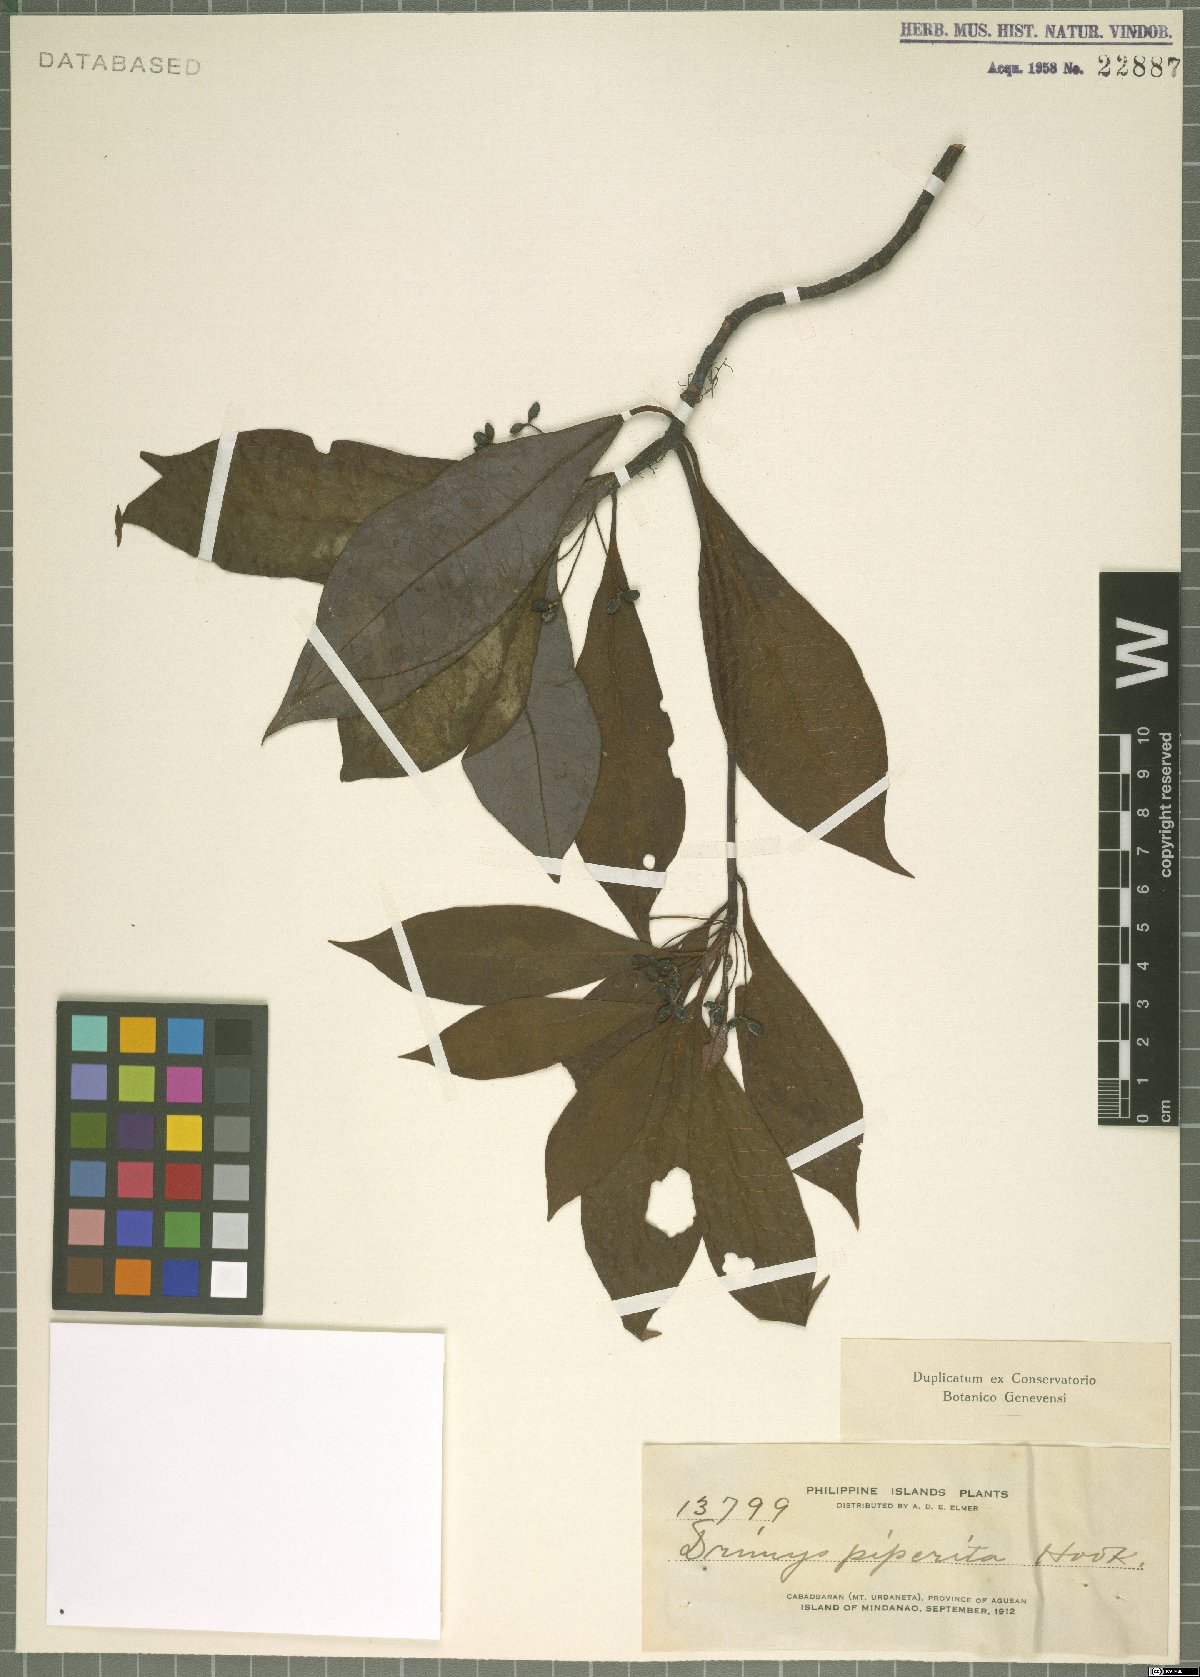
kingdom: Plantae
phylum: Tracheophyta
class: Magnoliopsida
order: Canellales
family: Winteraceae
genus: Drimys
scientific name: Drimys piperita
